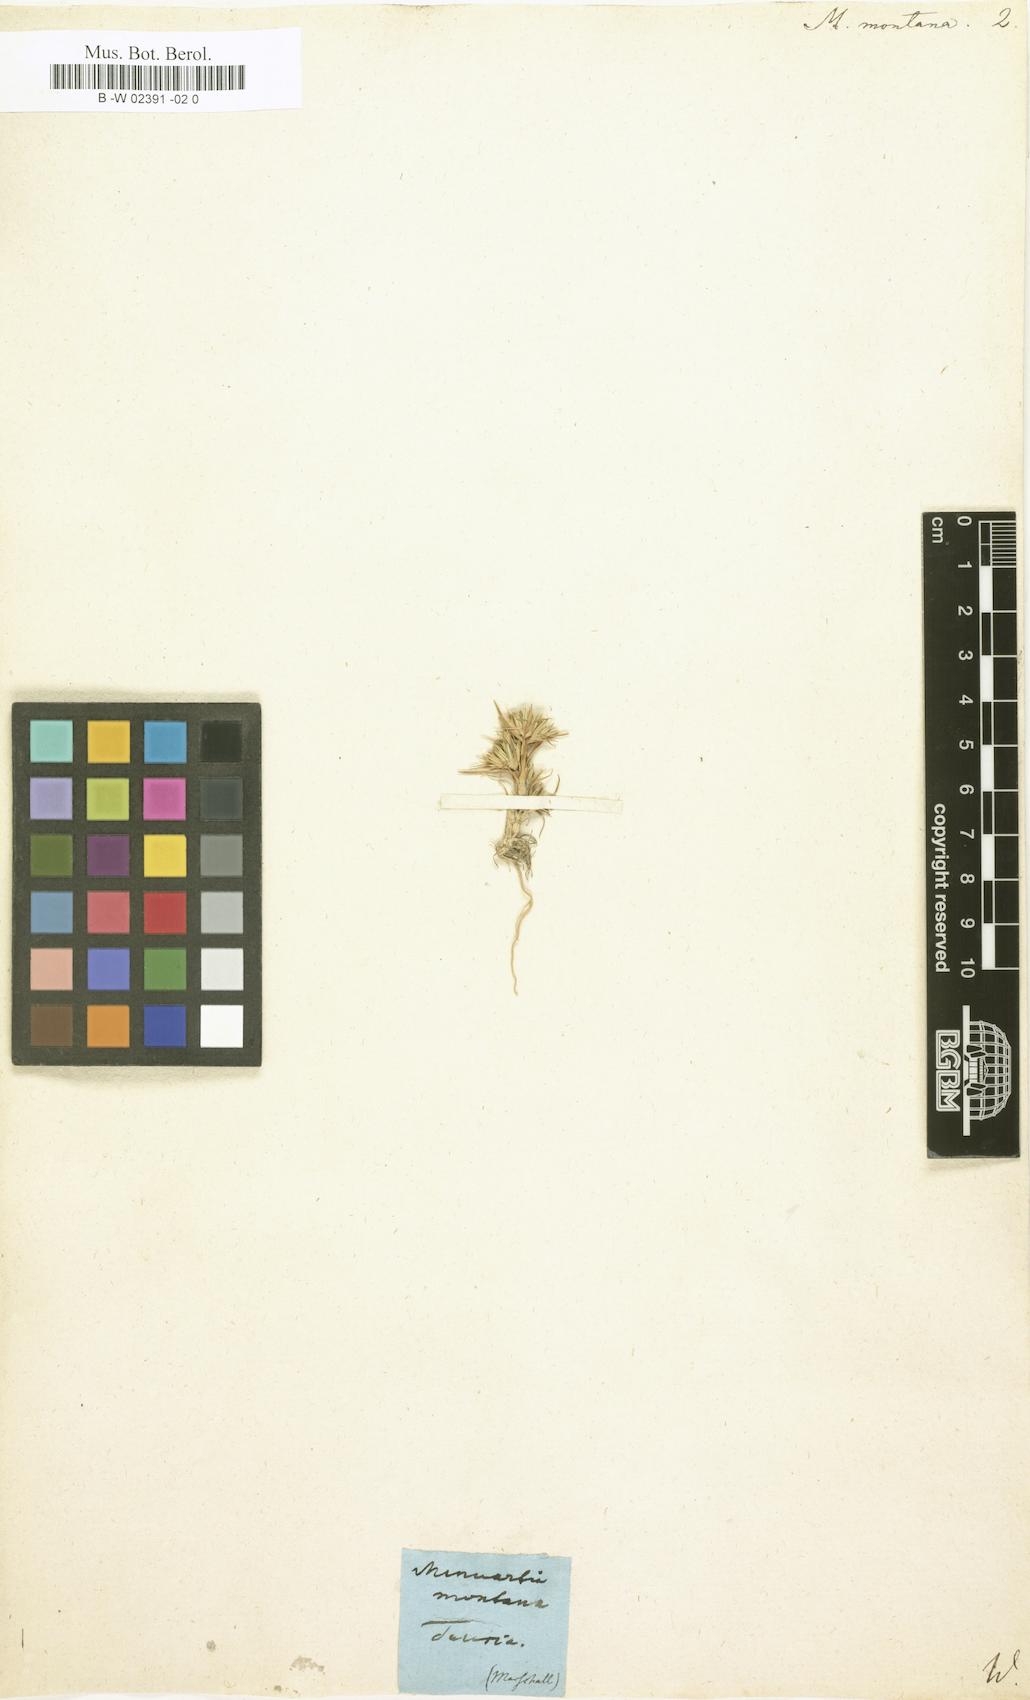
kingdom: Plantae
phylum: Tracheophyta
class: Magnoliopsida
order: Caryophyllales
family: Caryophyllaceae
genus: Minuartia
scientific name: Minuartia montana
